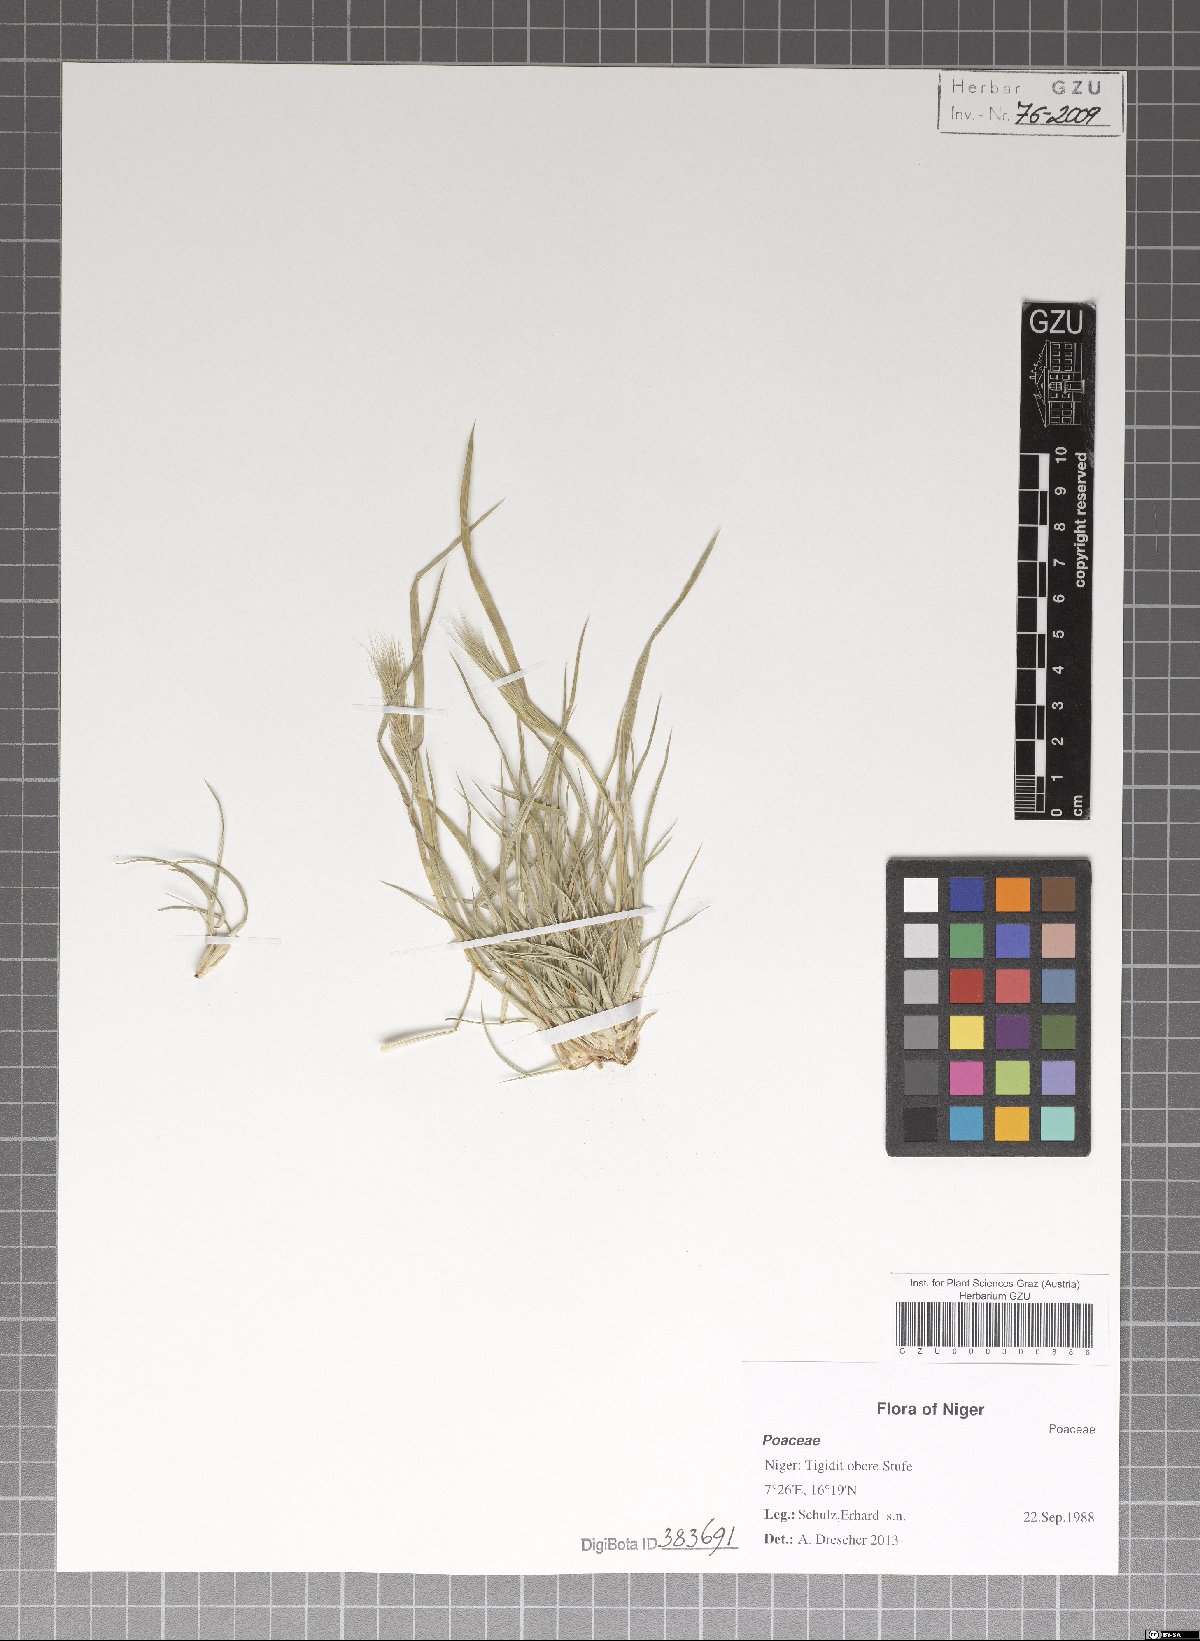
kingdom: Plantae
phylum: Tracheophyta
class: Liliopsida
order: Poales
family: Poaceae
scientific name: Poaceae
